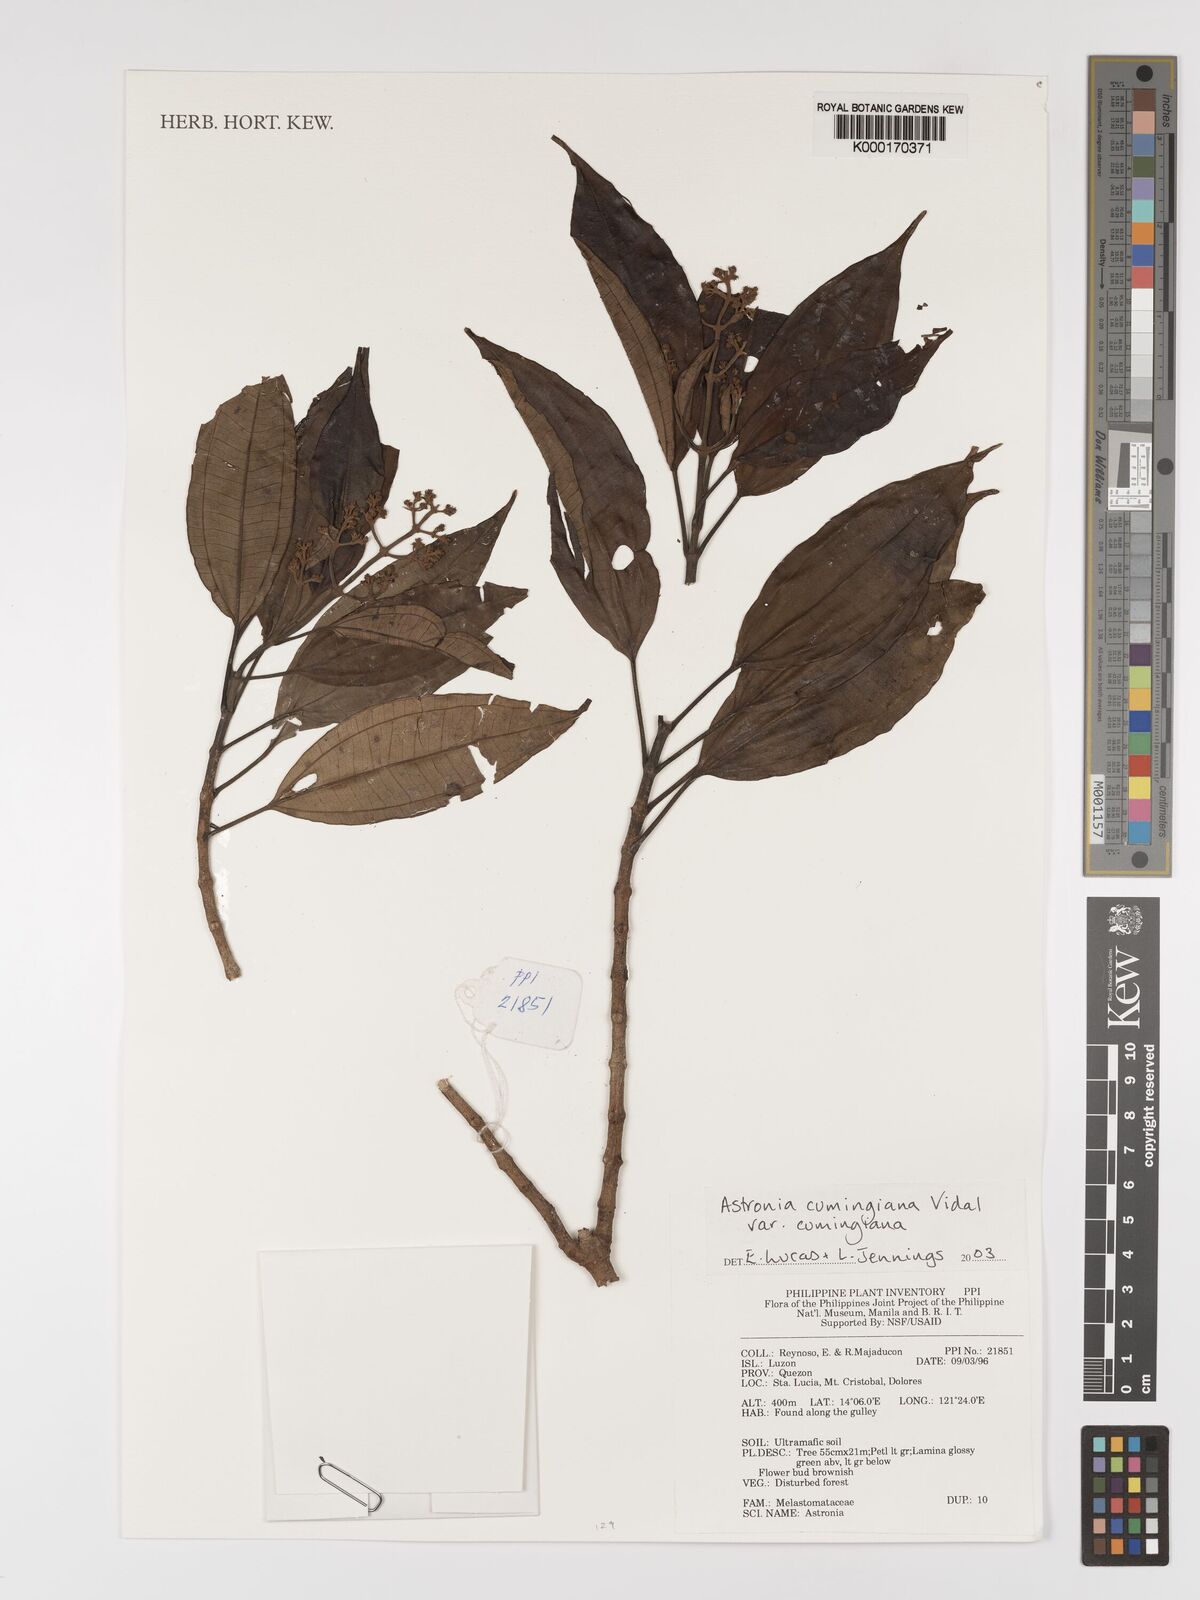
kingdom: Plantae
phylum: Tracheophyta
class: Magnoliopsida
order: Myrtales
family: Melastomataceae
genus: Astronia
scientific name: Astronia cumingiana
